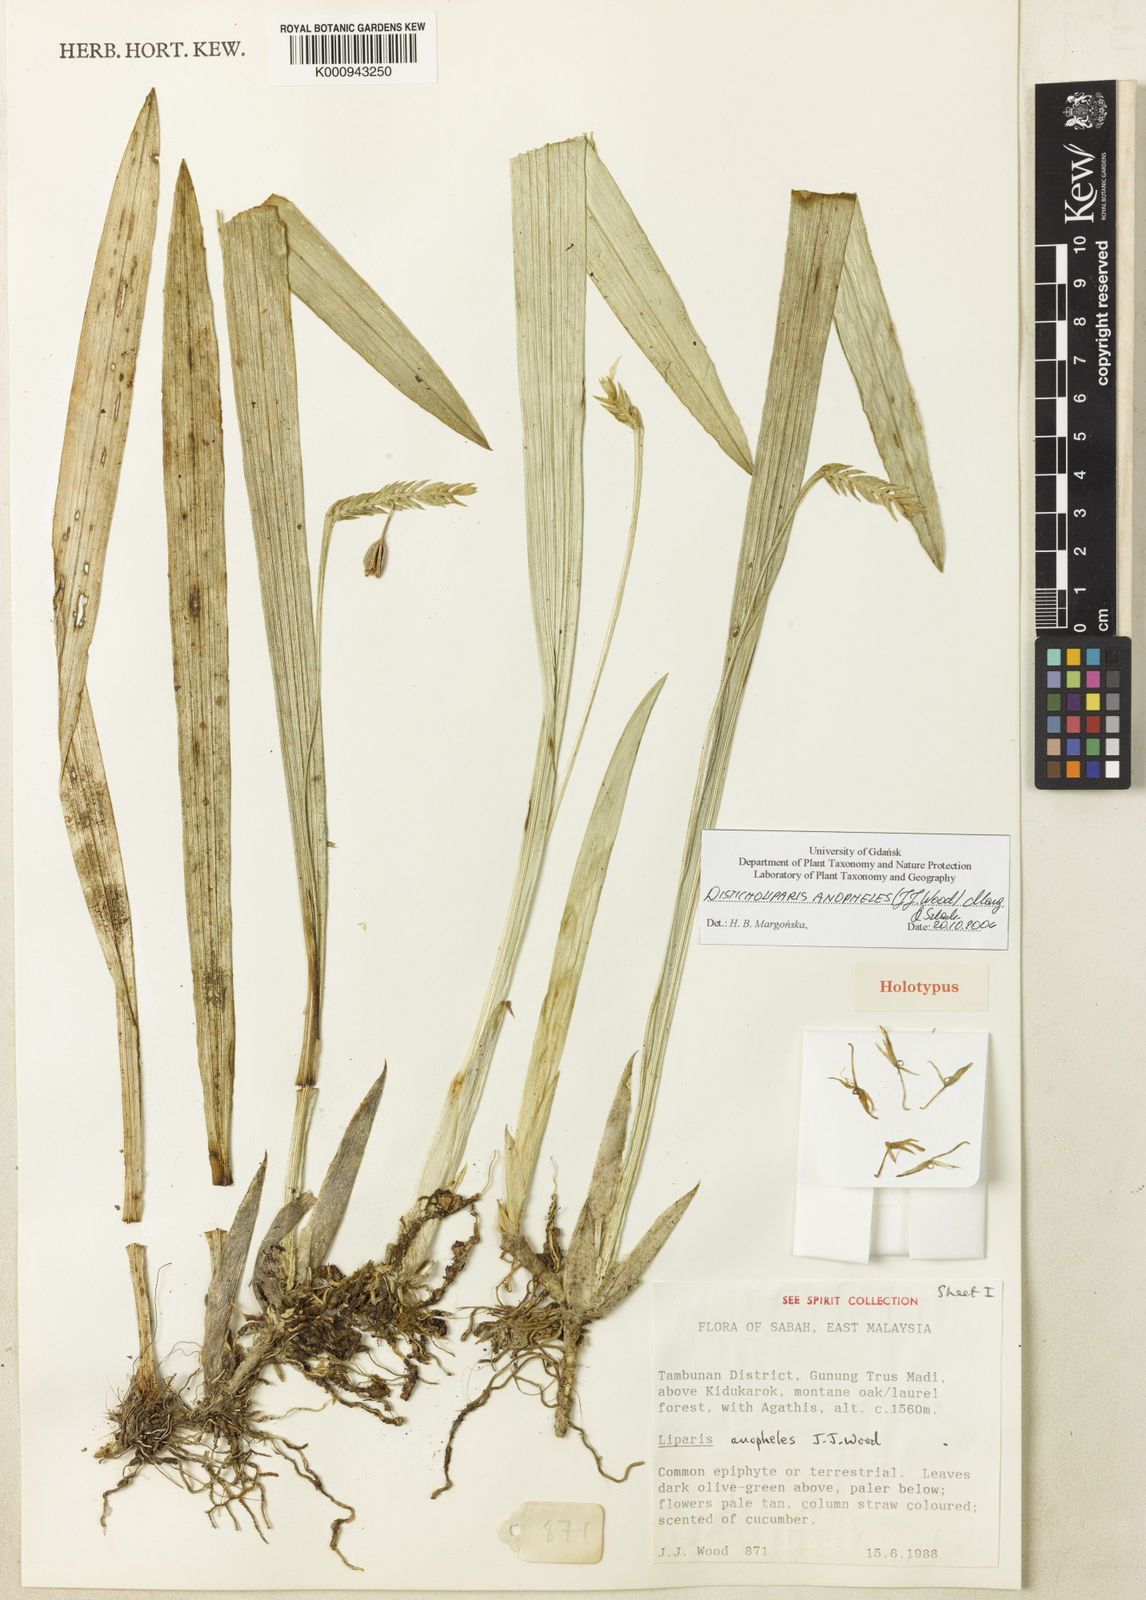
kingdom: Plantae
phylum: Tracheophyta
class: Liliopsida
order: Asparagales
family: Orchidaceae
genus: Liparis
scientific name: Liparis anopheles
